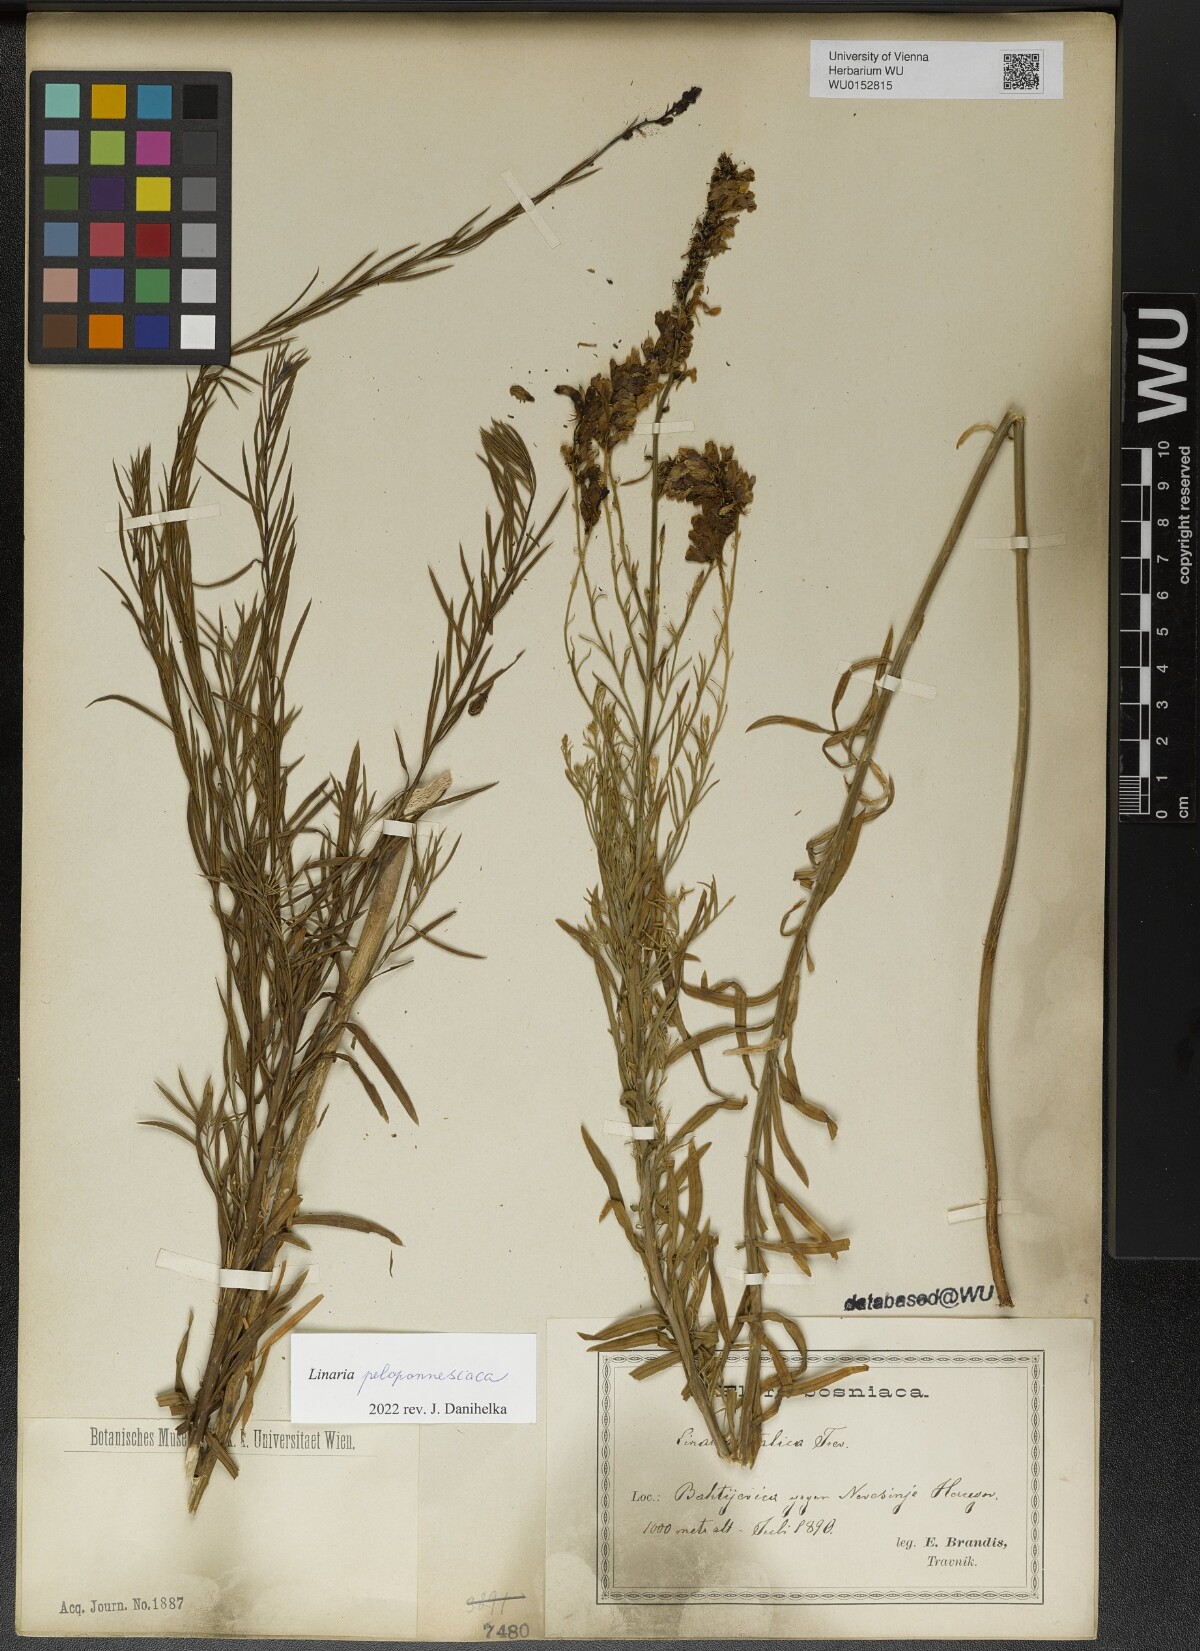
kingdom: Plantae
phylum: Tracheophyta
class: Magnoliopsida
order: Lamiales
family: Plantaginaceae
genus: Linaria
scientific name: Linaria peloponnesiaca
